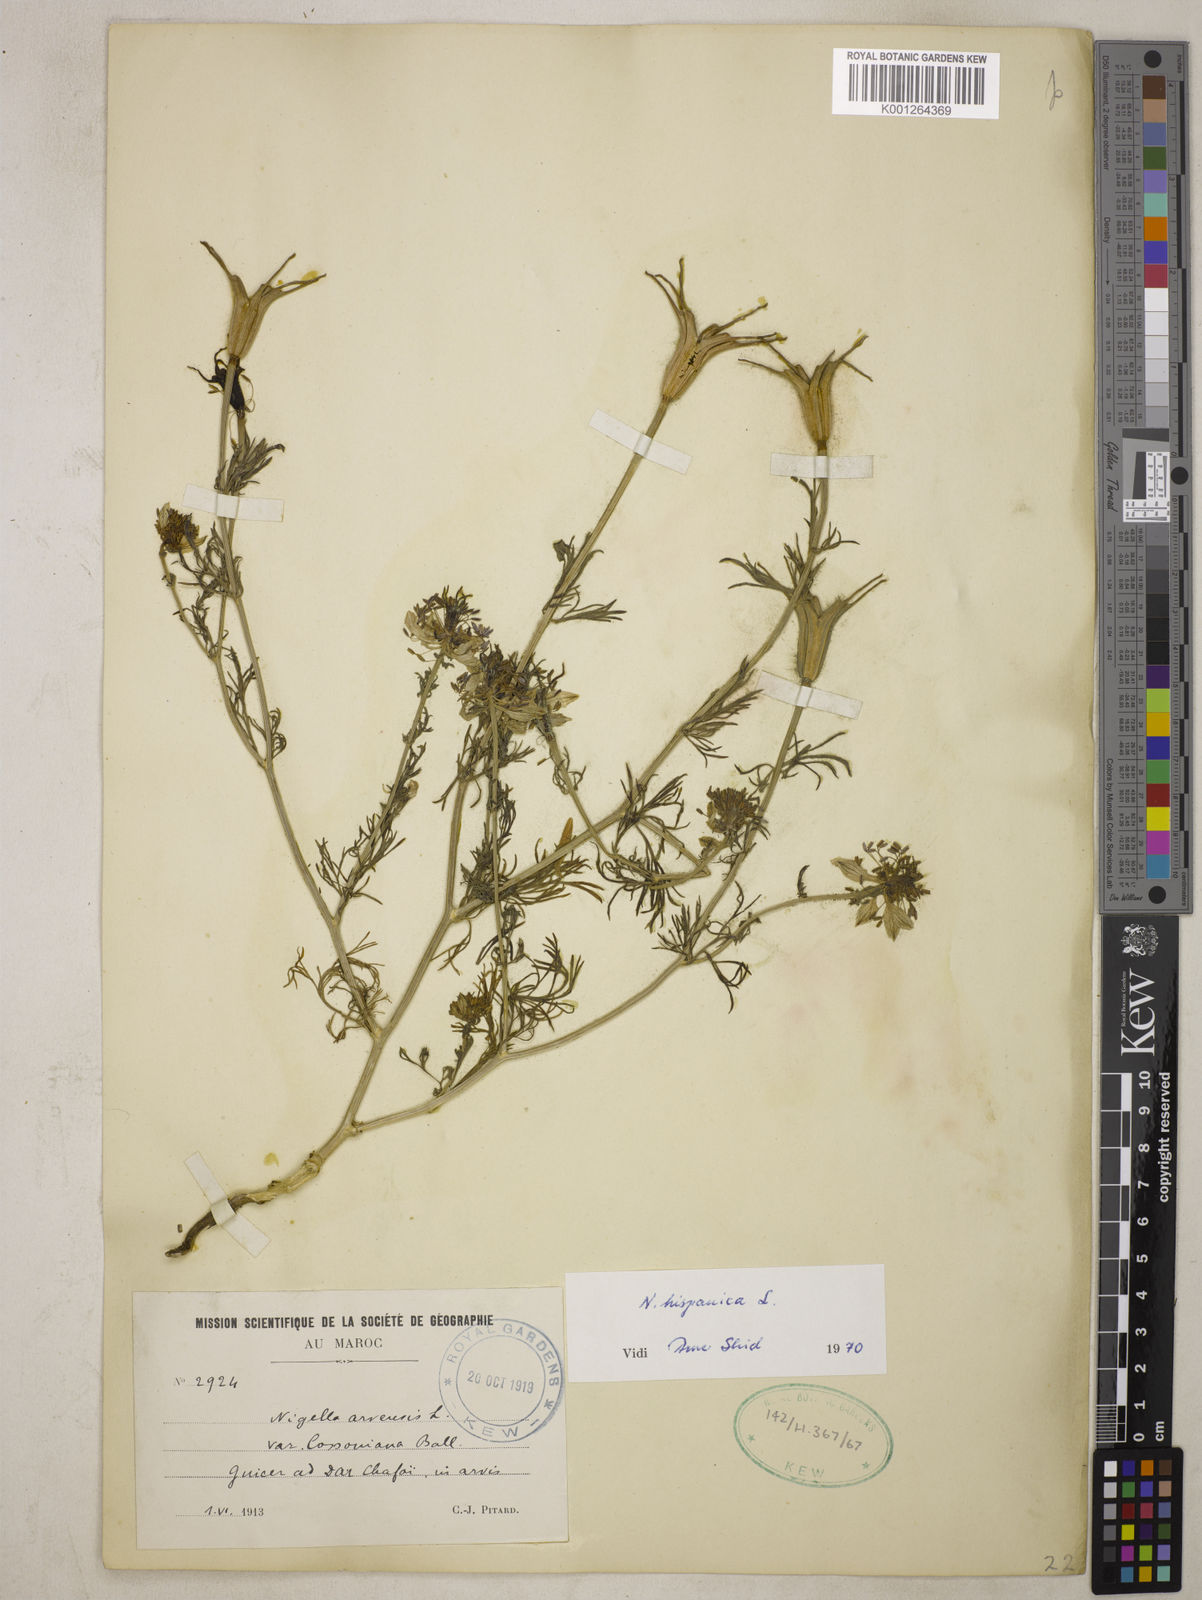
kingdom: Plantae
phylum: Tracheophyta
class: Magnoliopsida
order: Ranunculales
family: Ranunculaceae
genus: Nigella
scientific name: Nigella hispanica
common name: Fennel-flower
